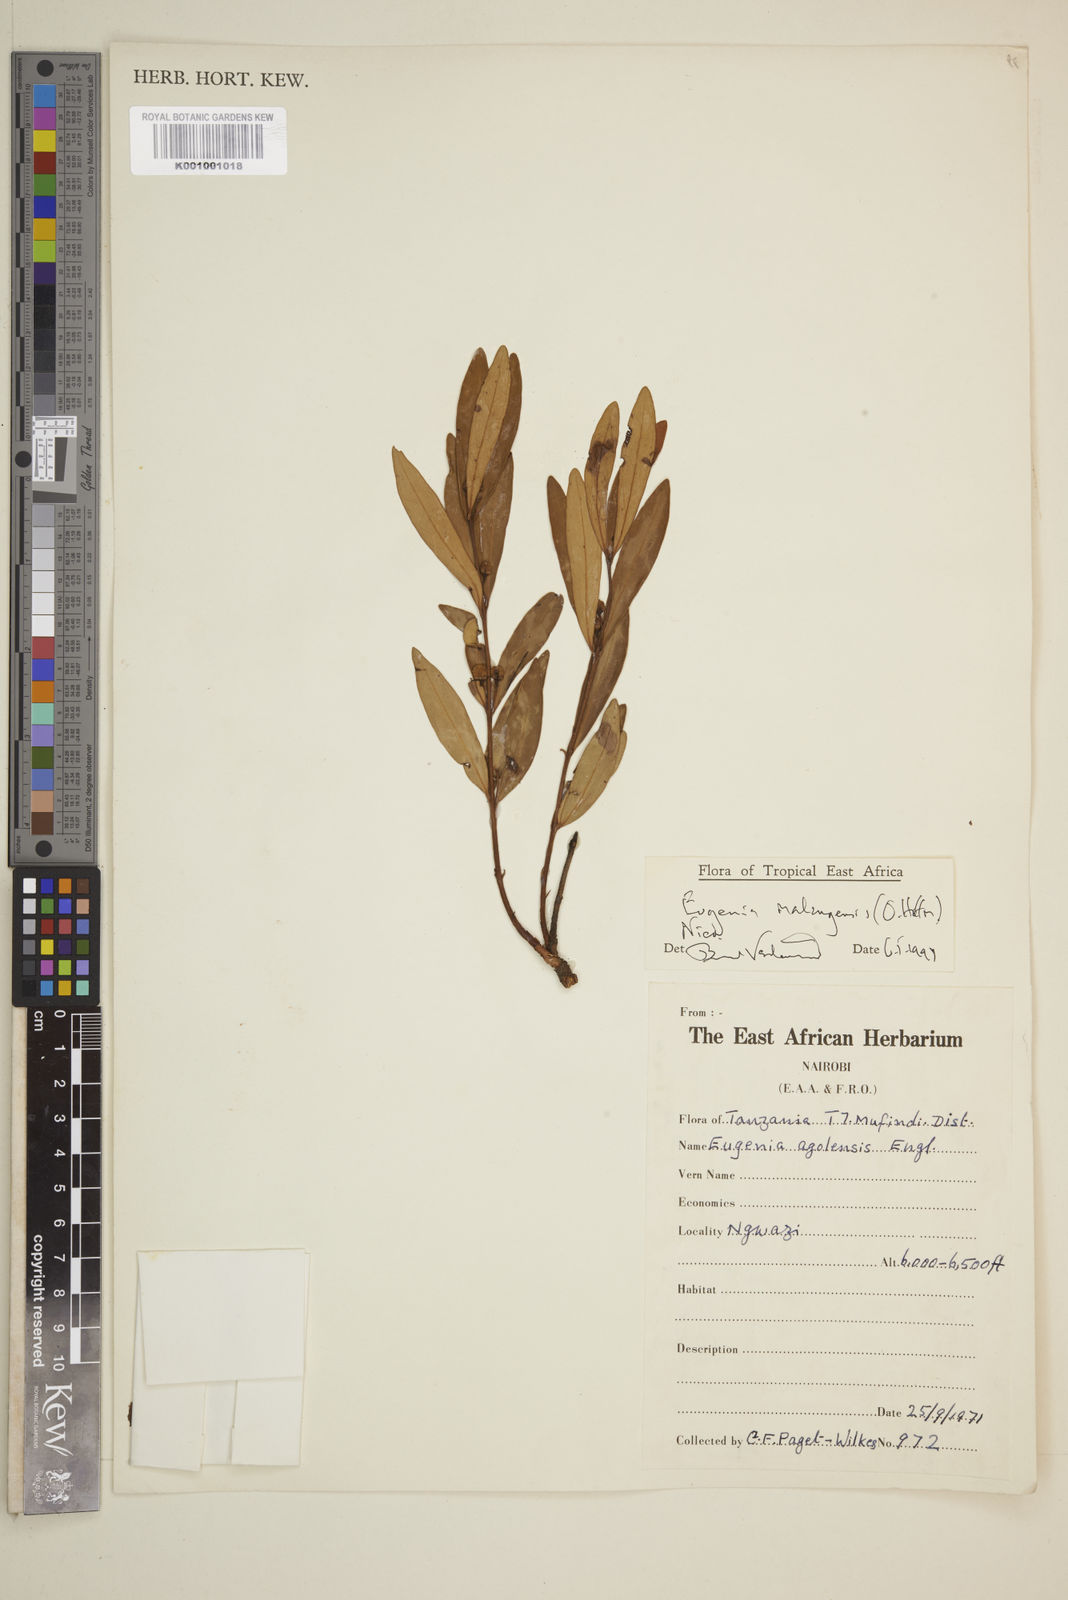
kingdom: Plantae
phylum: Tracheophyta
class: Magnoliopsida
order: Myrtales
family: Myrtaceae
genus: Eugenia
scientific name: Eugenia malangensis
